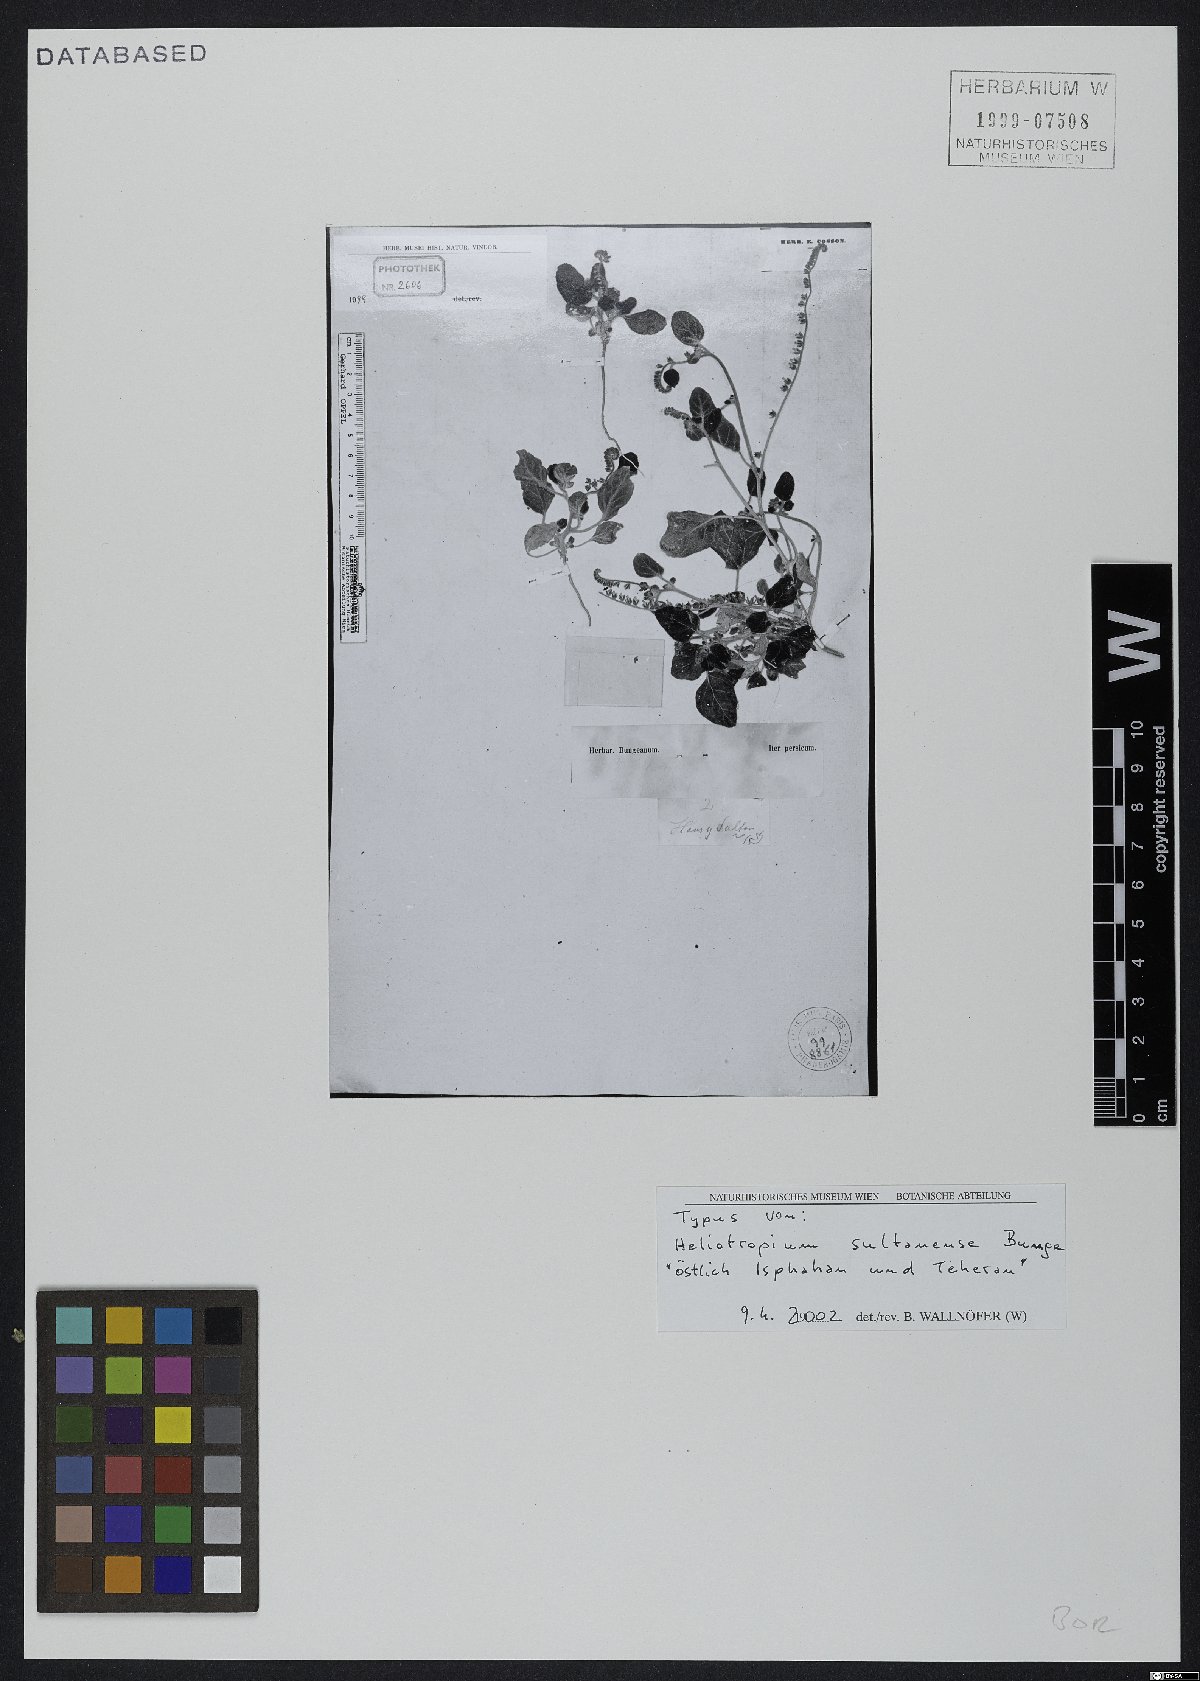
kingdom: Plantae
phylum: Tracheophyta
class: Magnoliopsida
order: Boraginales
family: Heliotropiaceae
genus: Heliotropium
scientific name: Heliotropium sultanense
